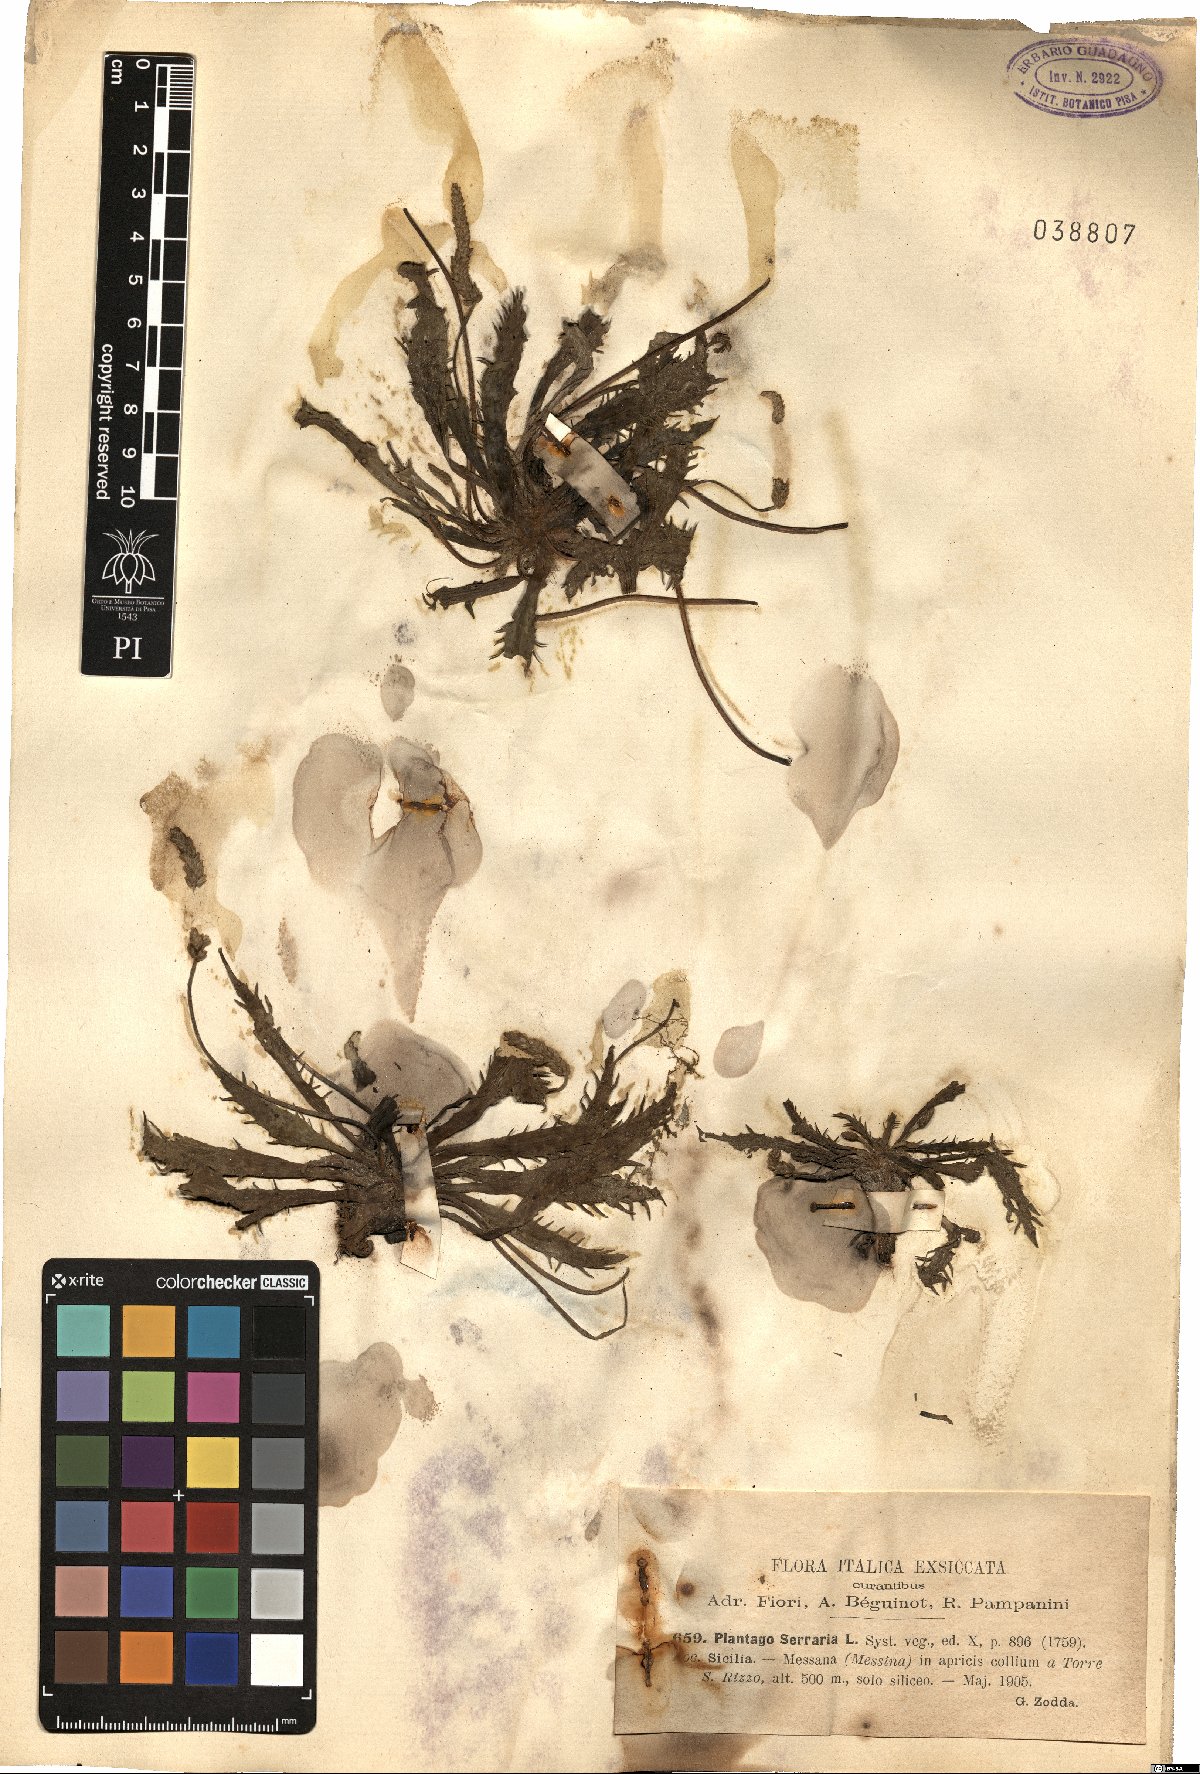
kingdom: Plantae
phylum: Tracheophyta
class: Magnoliopsida
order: Lamiales
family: Plantaginaceae
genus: Plantago
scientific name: Plantago serraria
